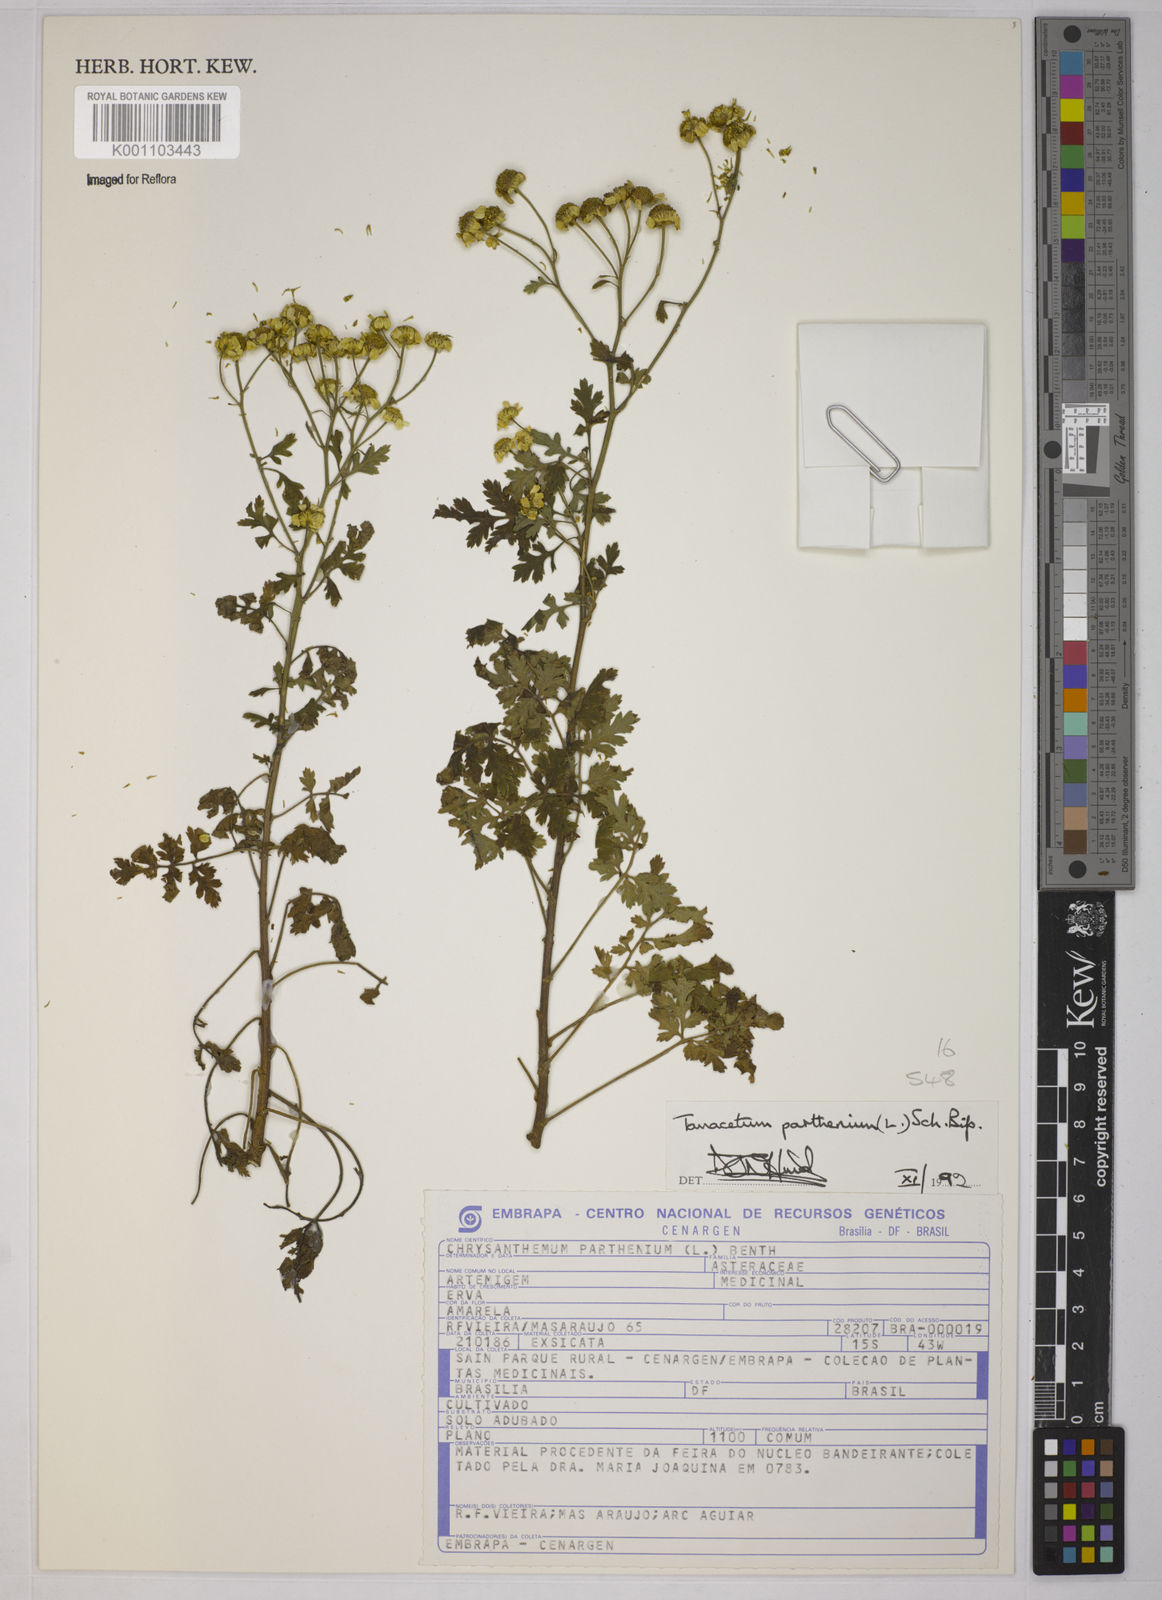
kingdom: Plantae
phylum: Tracheophyta
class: Magnoliopsida
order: Asterales
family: Asteraceae
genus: Tanacetum
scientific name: Tanacetum parthenium
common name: Feverfew
